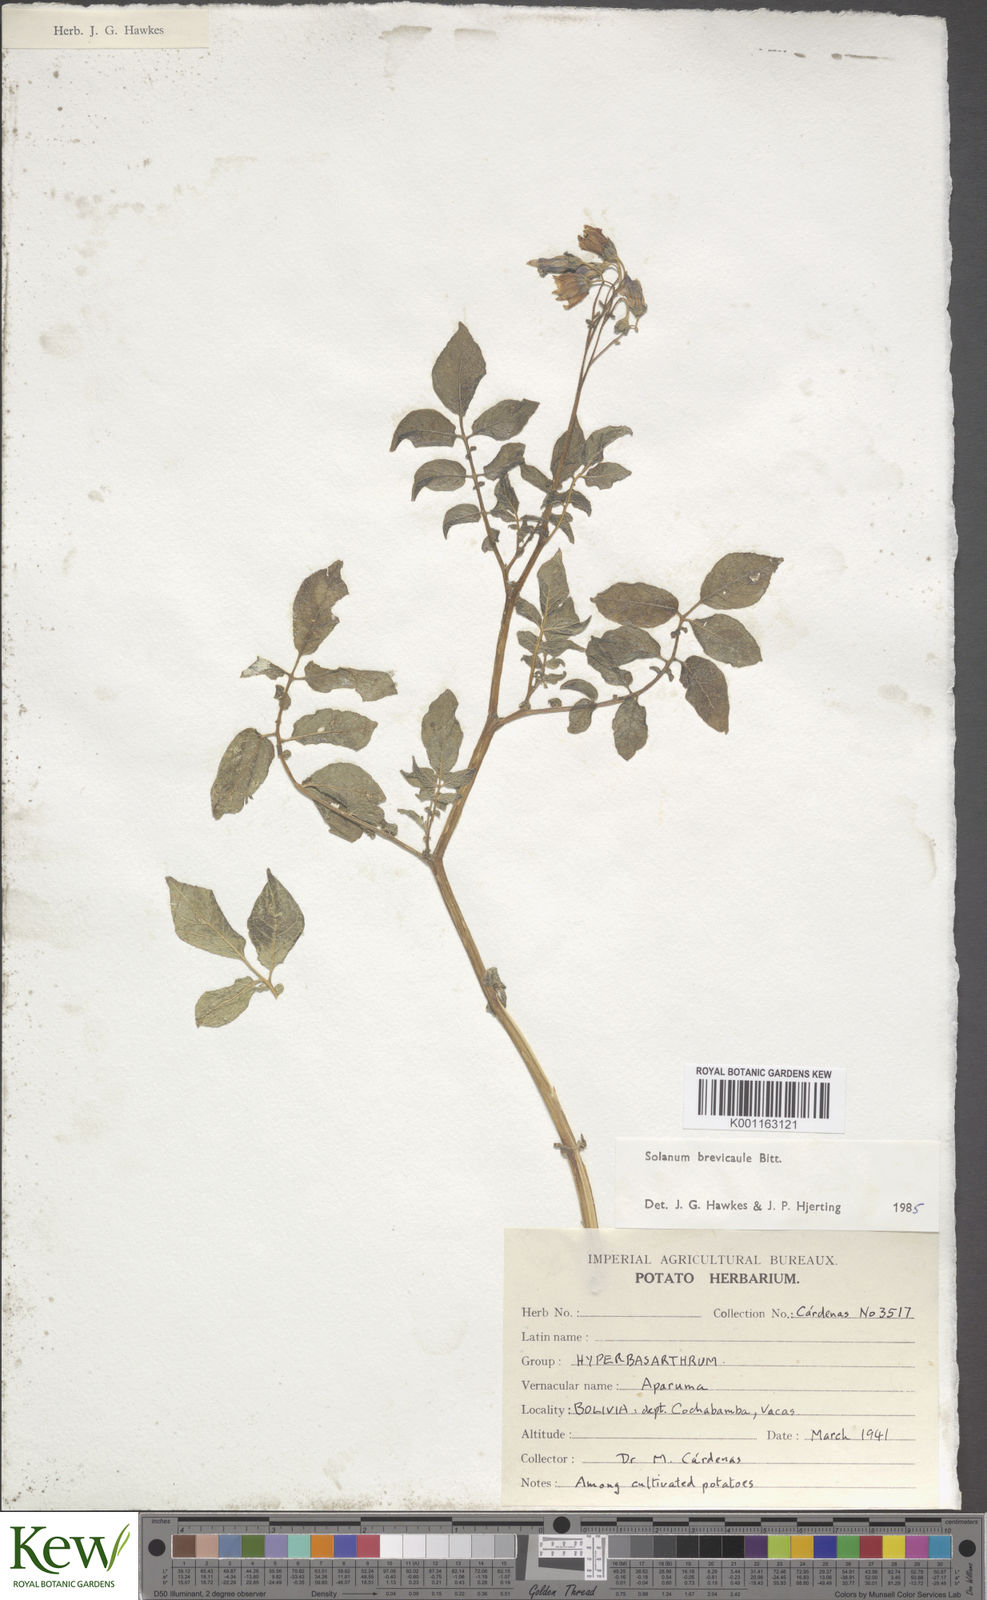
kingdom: Plantae
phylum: Tracheophyta
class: Magnoliopsida
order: Solanales
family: Solanaceae
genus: Solanum
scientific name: Solanum brevicaule
